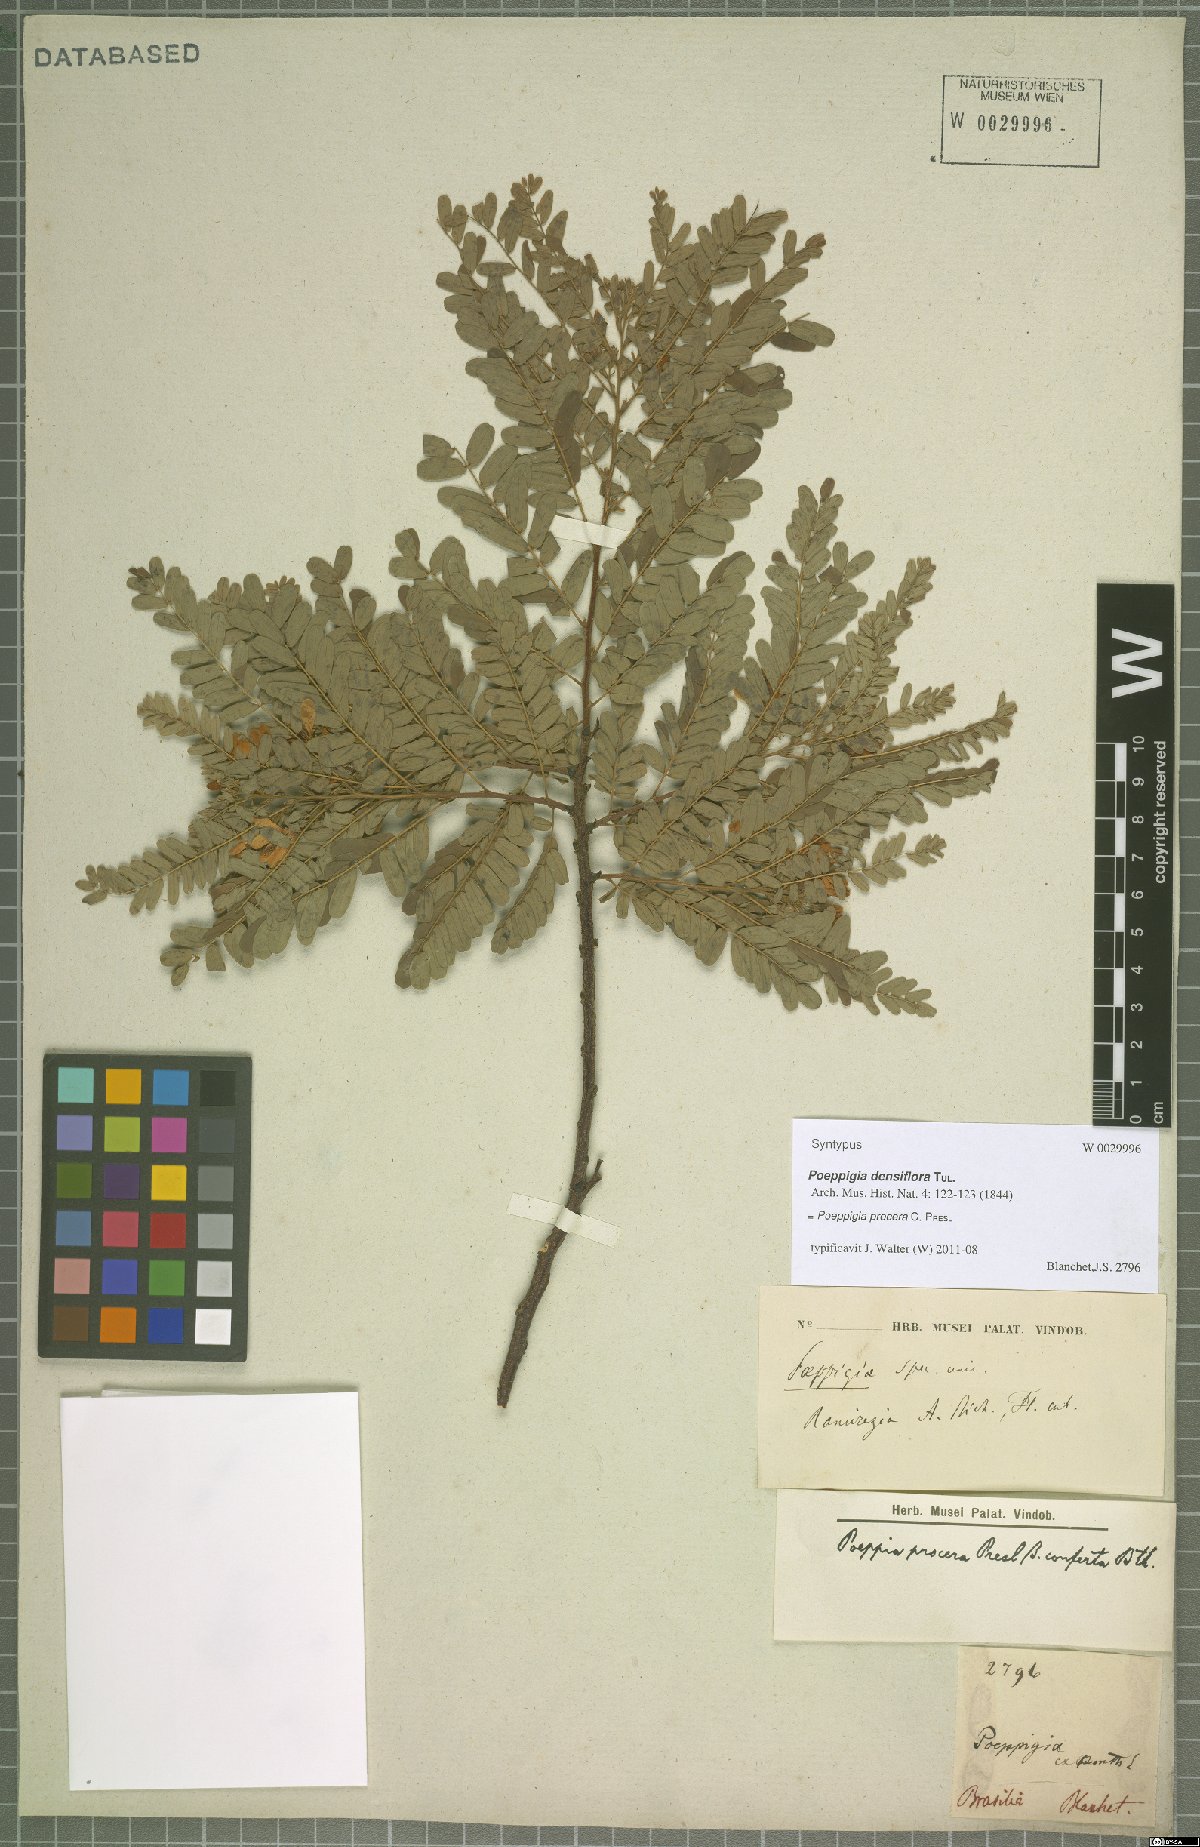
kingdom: Plantae
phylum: Tracheophyta
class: Magnoliopsida
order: Fabales
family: Fabaceae
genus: Poeppigia
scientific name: Poeppigia procera
